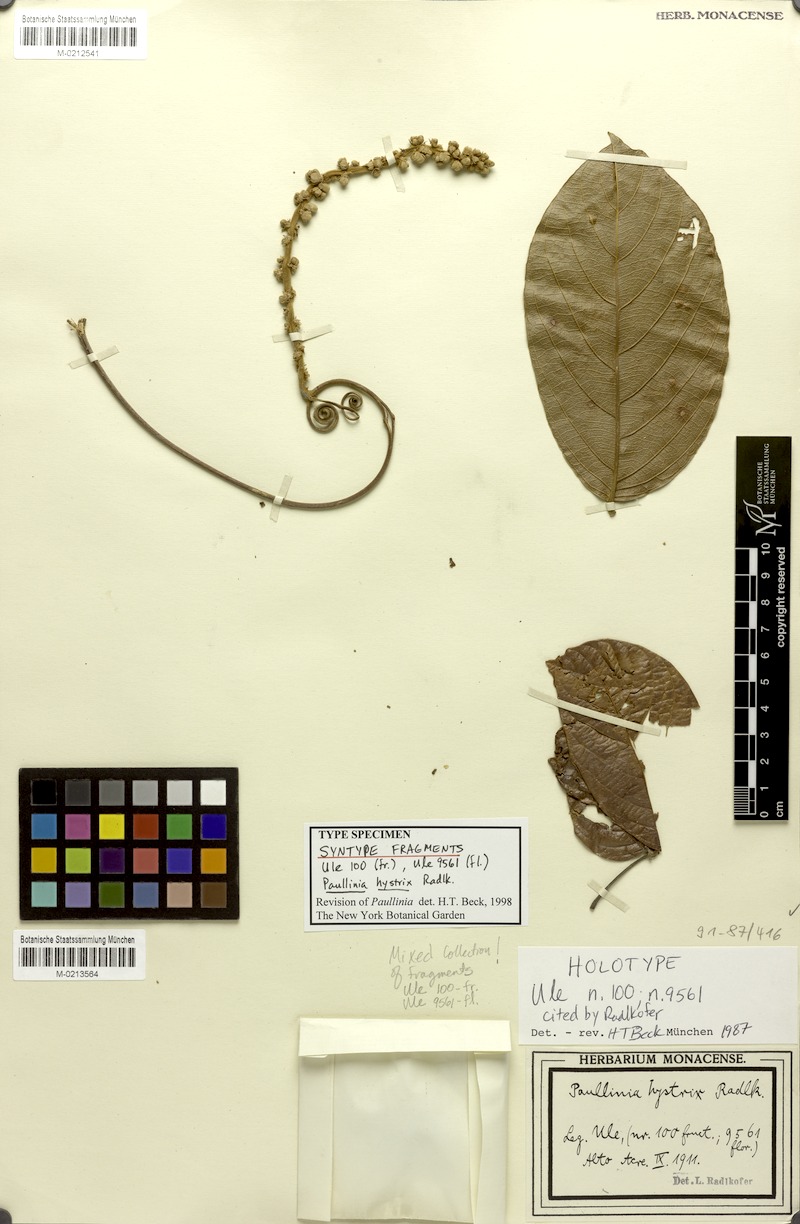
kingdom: Plantae
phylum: Tracheophyta
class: Magnoliopsida
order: Sapindales
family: Sapindaceae
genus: Paullinia
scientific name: Paullinia hystrix
